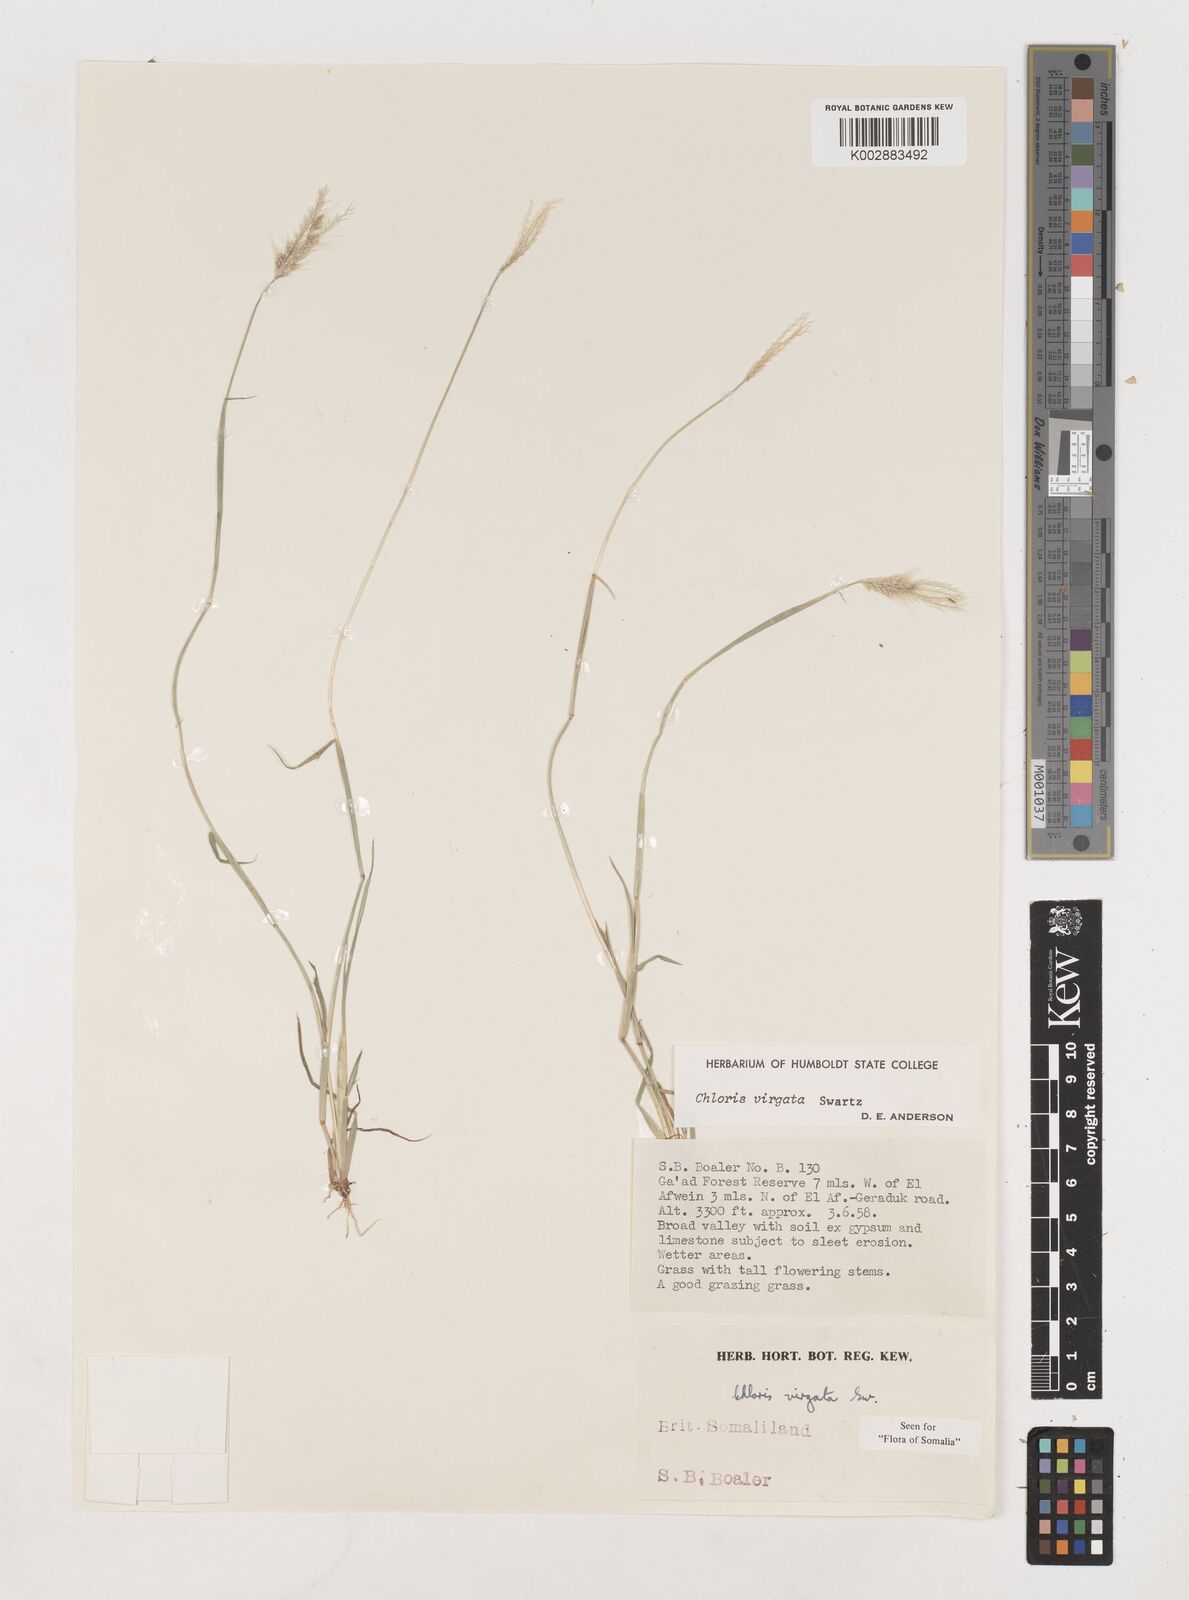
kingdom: Plantae
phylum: Tracheophyta
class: Liliopsida
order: Poales
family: Poaceae
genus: Chloris
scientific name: Chloris virgata
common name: Feathery rhodes-grass
